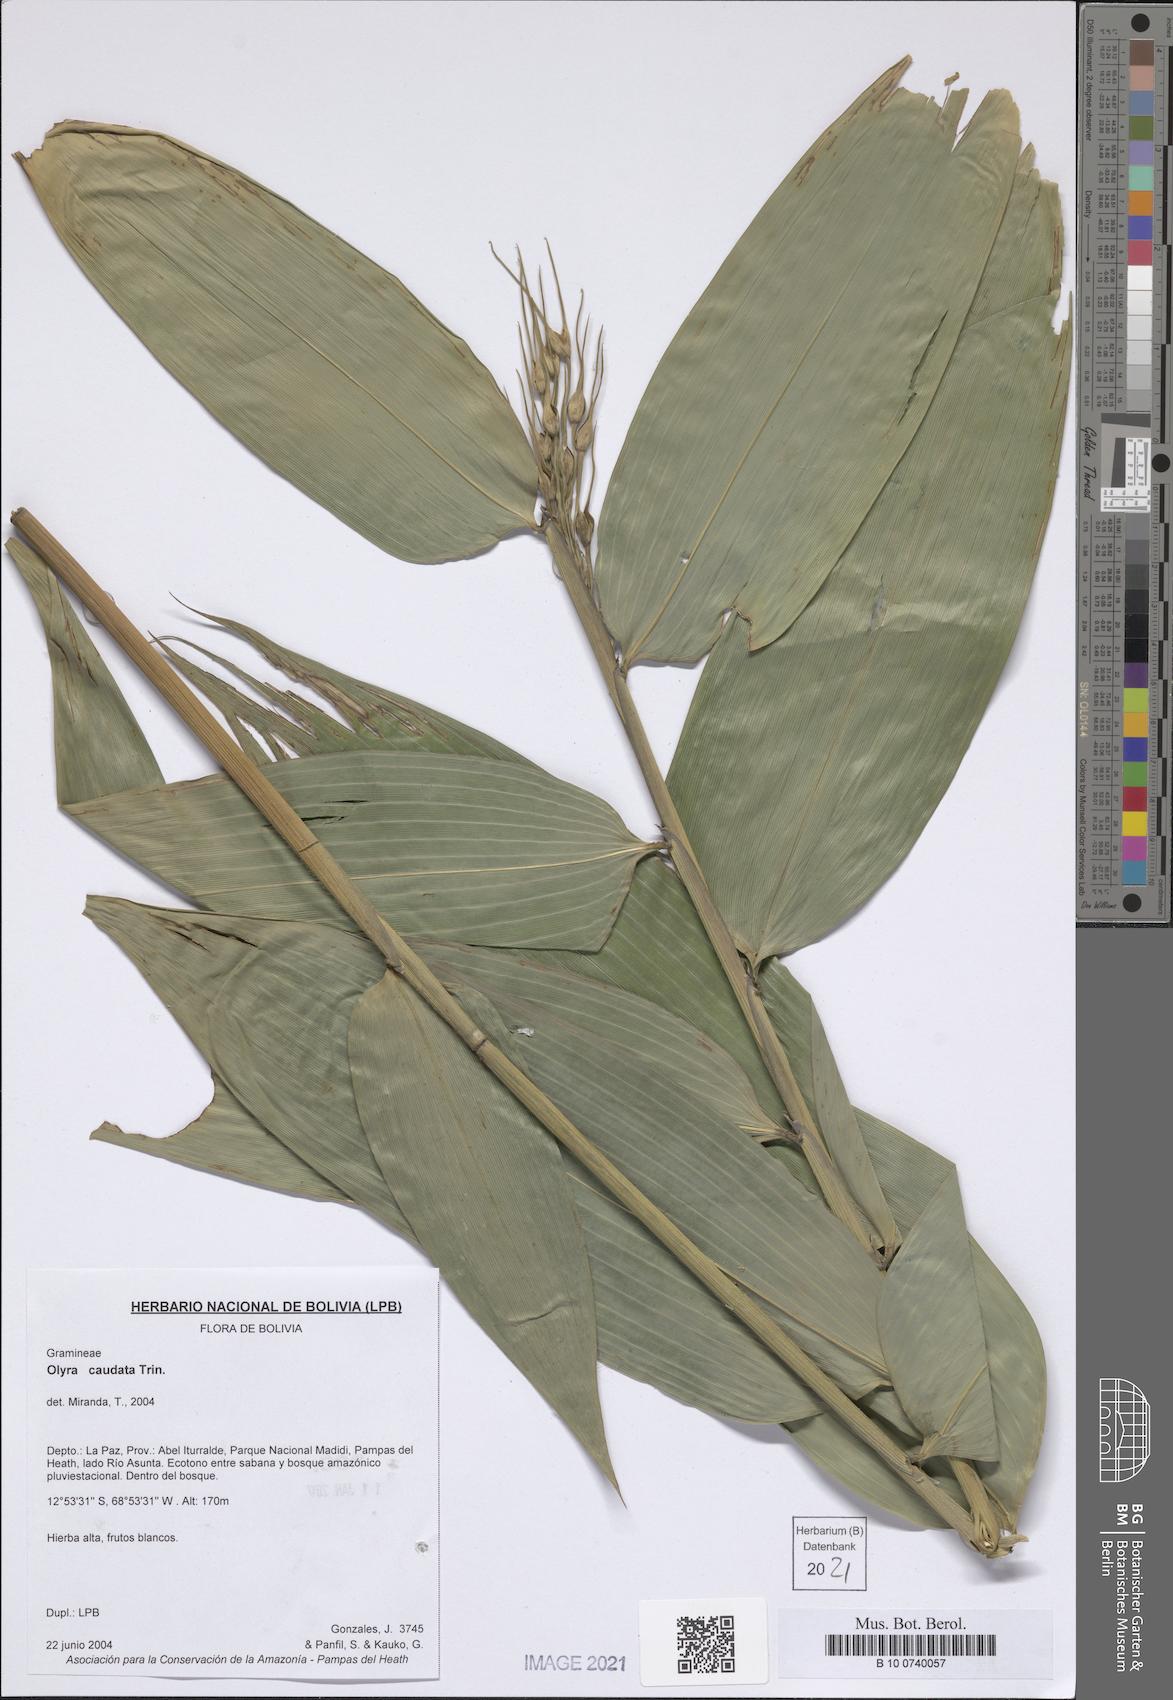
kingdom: Plantae
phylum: Tracheophyta
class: Liliopsida
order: Poales
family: Poaceae
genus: Olyra
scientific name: Olyra caudata
